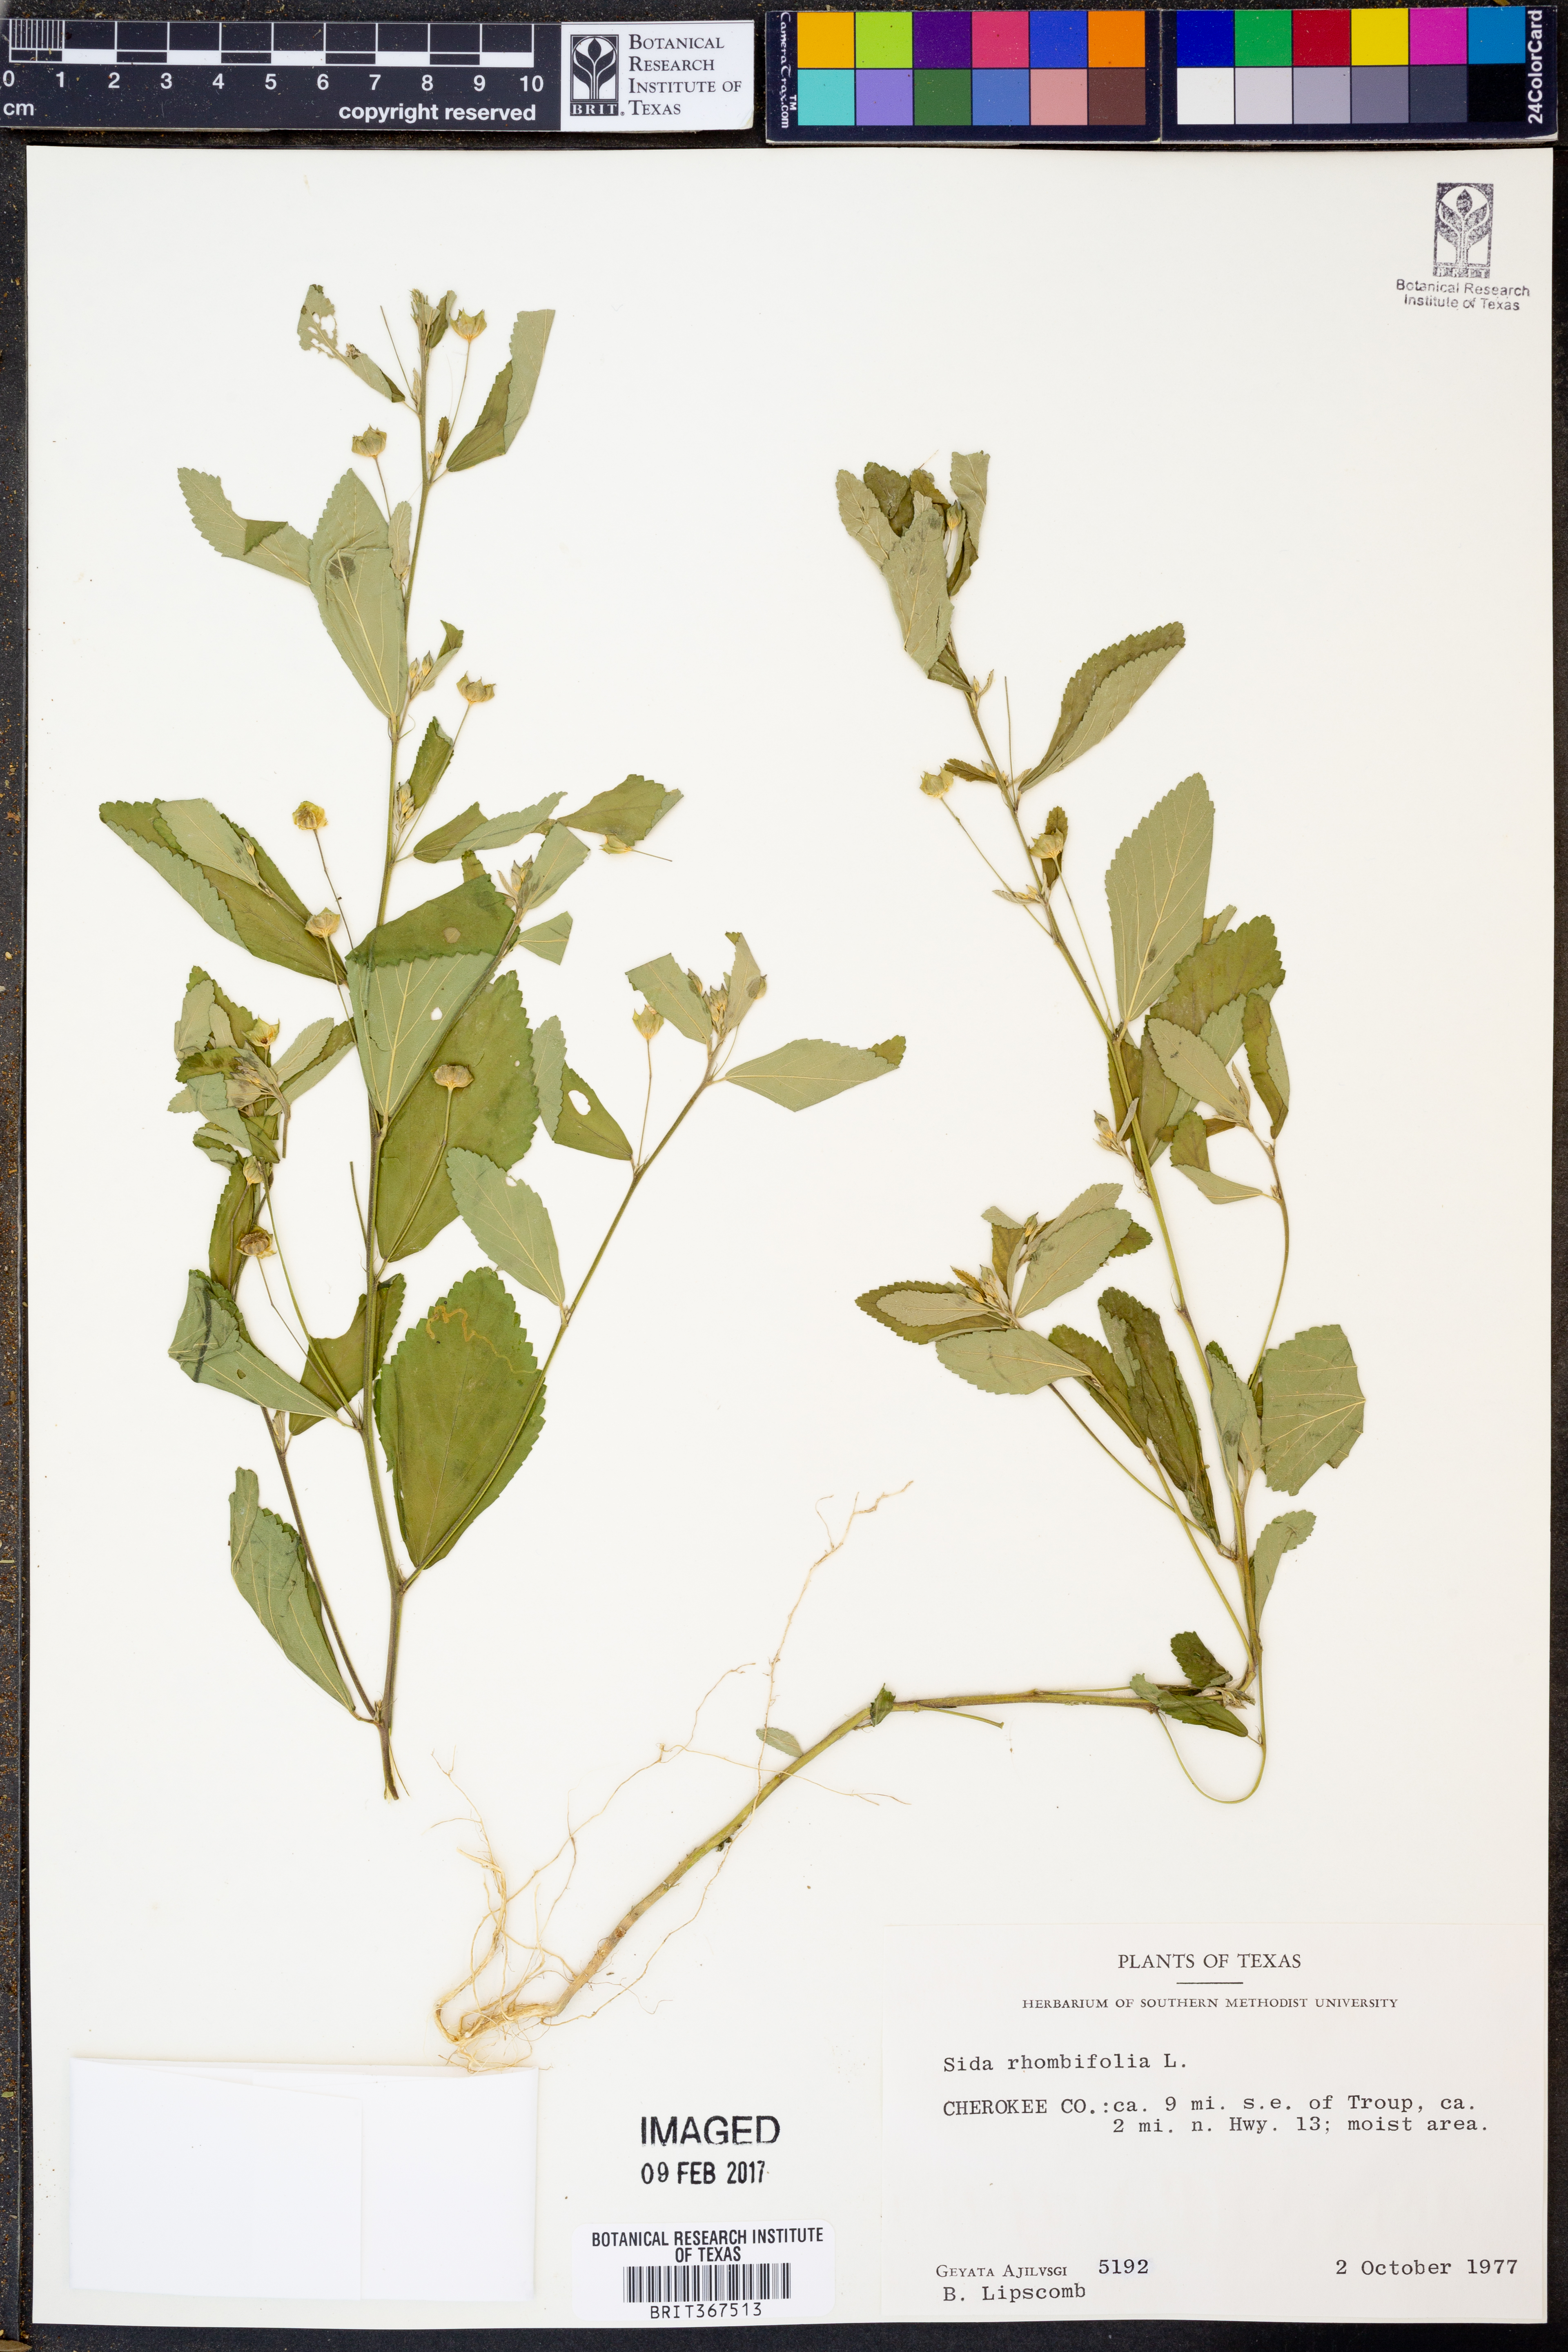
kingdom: Plantae
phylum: Tracheophyta
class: Magnoliopsida
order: Malvales
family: Malvaceae
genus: Sida
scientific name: Sida rhombifolia
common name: Queensland-hemp
